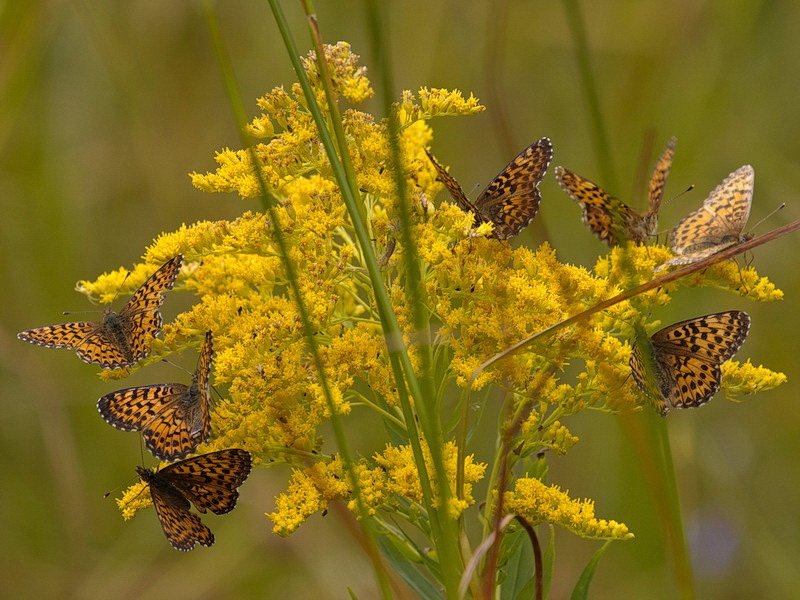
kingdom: Animalia
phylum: Arthropoda
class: Insecta
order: Lepidoptera
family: Nymphalidae
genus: Boloria
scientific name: Boloria chariclea
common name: Arctic Fritillary
